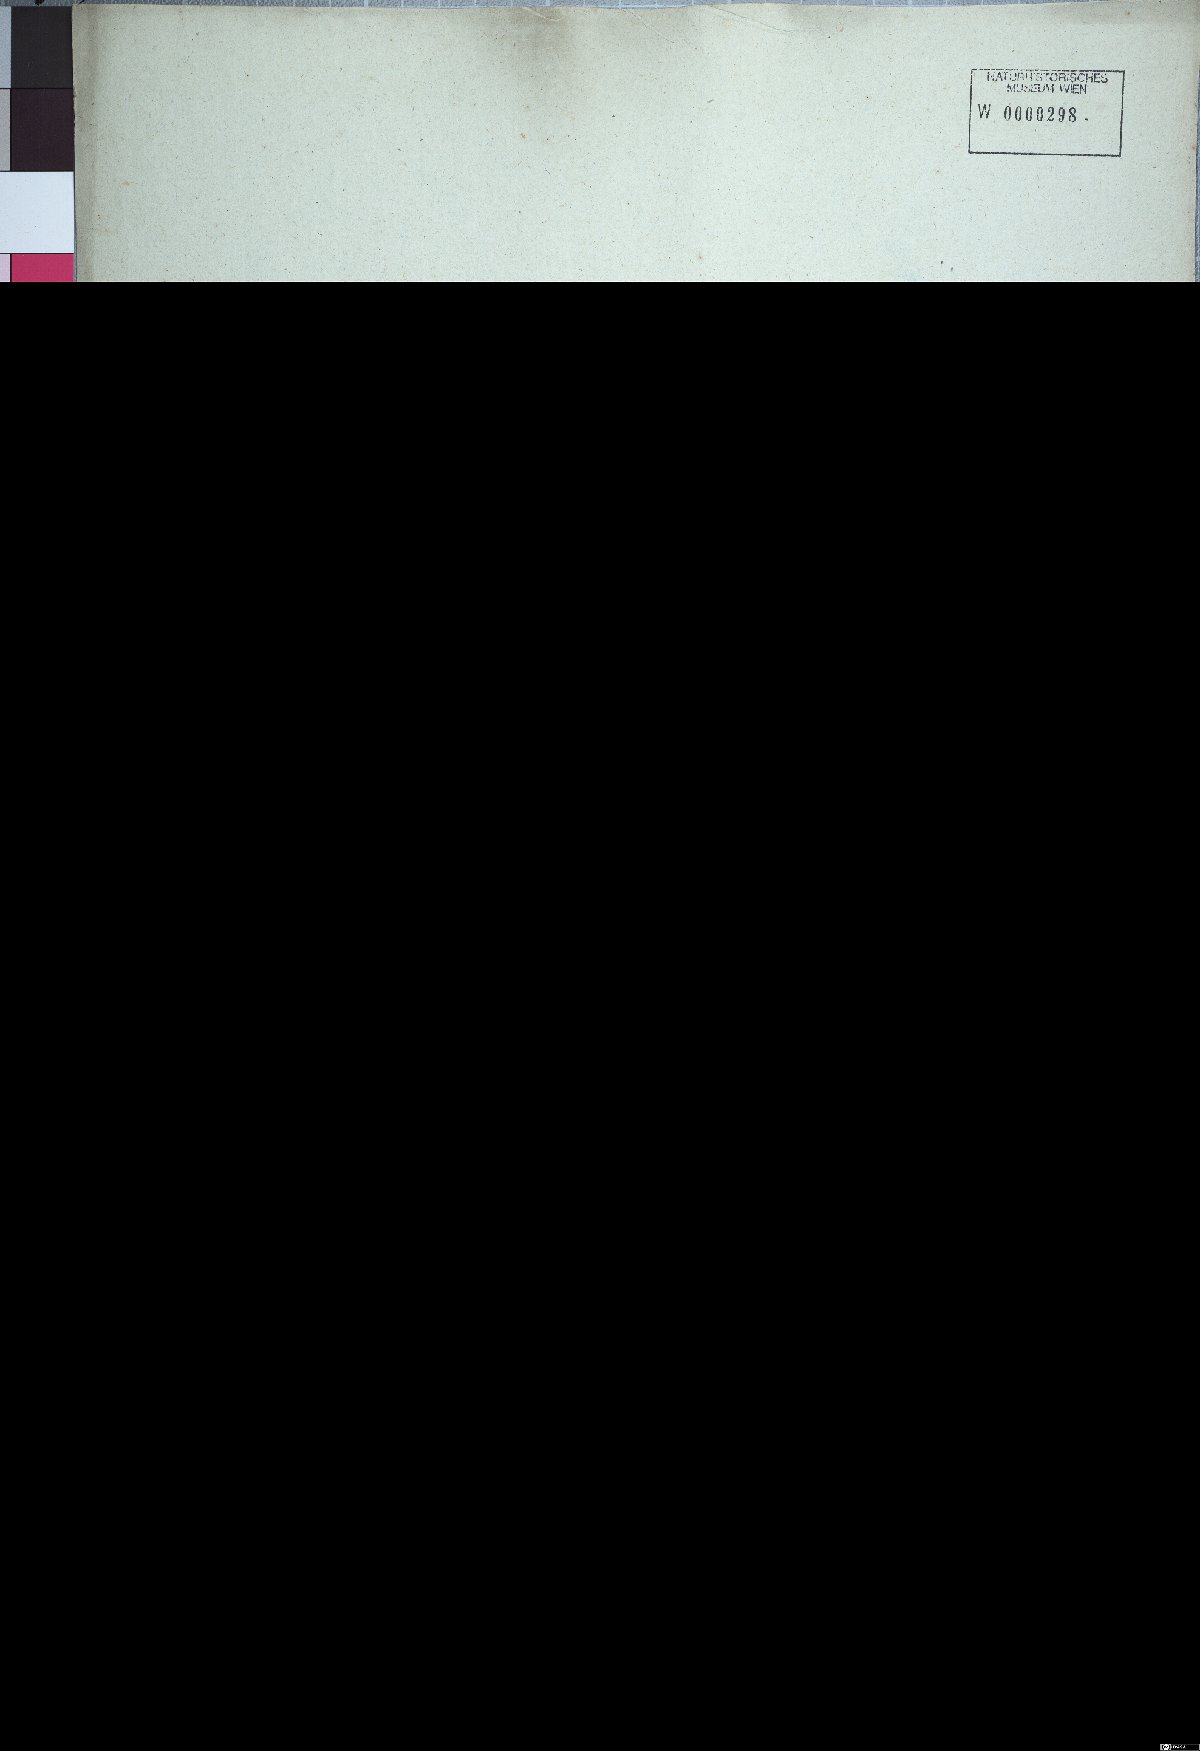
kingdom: Plantae
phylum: Tracheophyta
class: Liliopsida
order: Poales
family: Poaceae
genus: Cenchrus
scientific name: Cenchrus longisetus
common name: Feathertop
